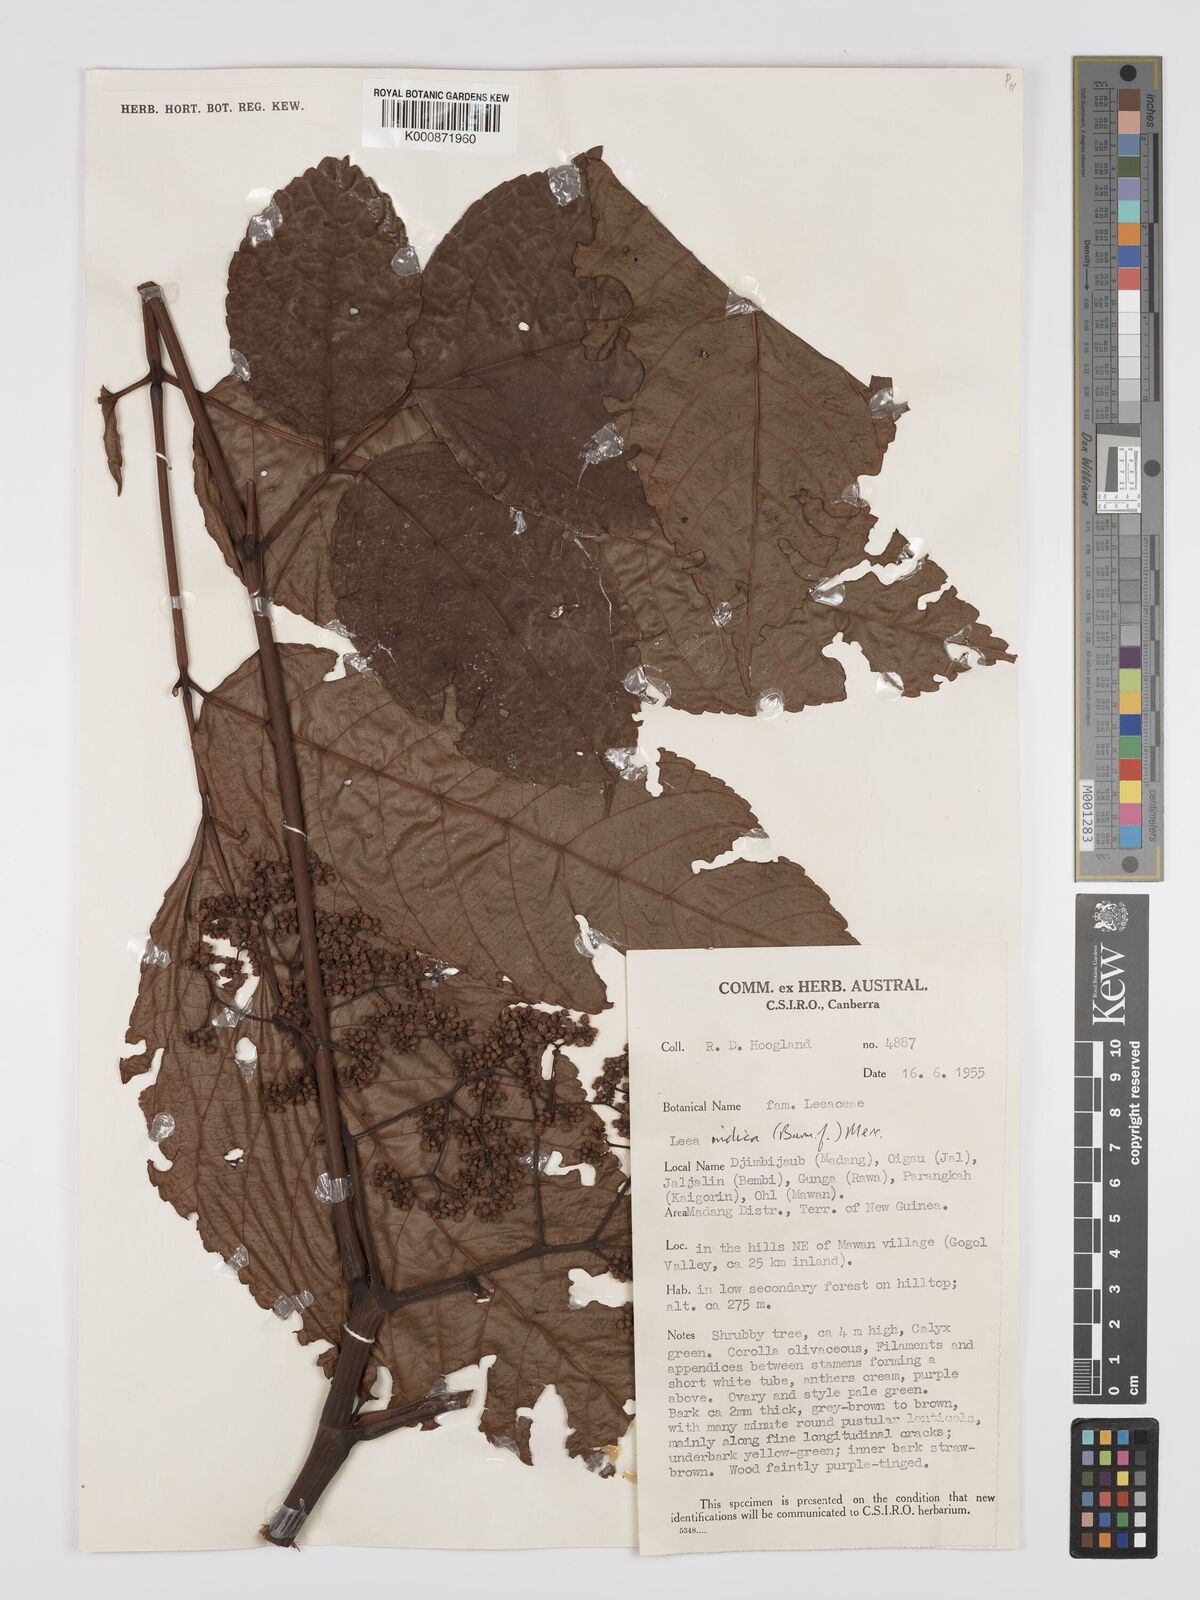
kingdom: Plantae
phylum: Tracheophyta
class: Magnoliopsida
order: Vitales
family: Vitaceae
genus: Leea
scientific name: Leea indica
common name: Bandicoot-berry
